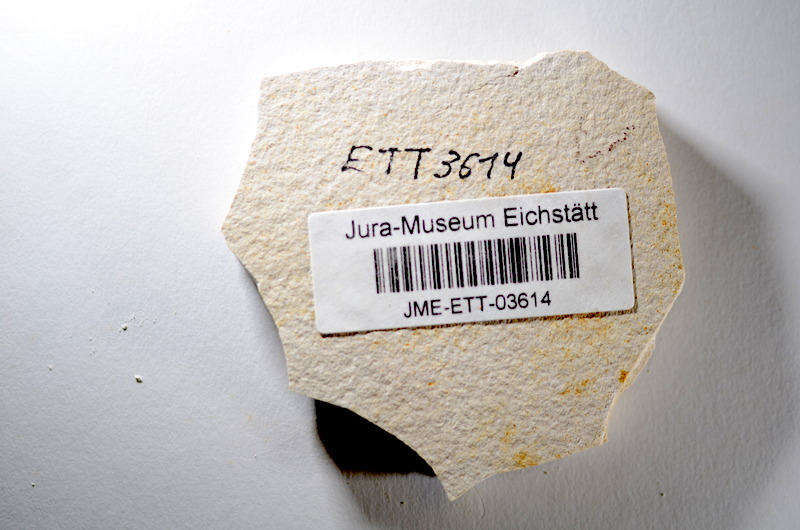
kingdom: Animalia
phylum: Chordata
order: Salmoniformes
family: Orthogonikleithridae
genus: Orthogonikleithrus
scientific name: Orthogonikleithrus hoelli
